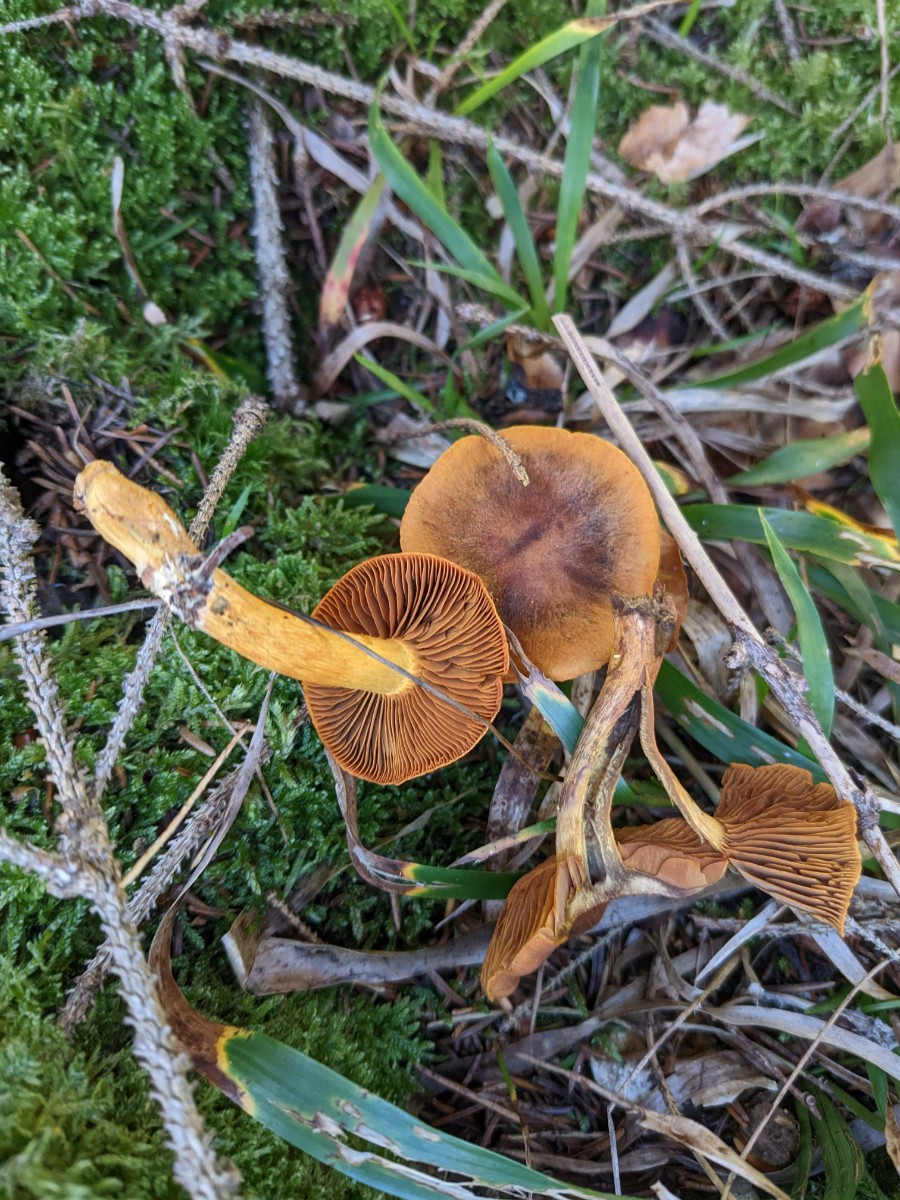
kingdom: Fungi
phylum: Basidiomycota
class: Agaricomycetes
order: Agaricales
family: Cortinariaceae
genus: Cortinarius
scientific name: Cortinarius malicorius
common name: grønkødet slørhat
